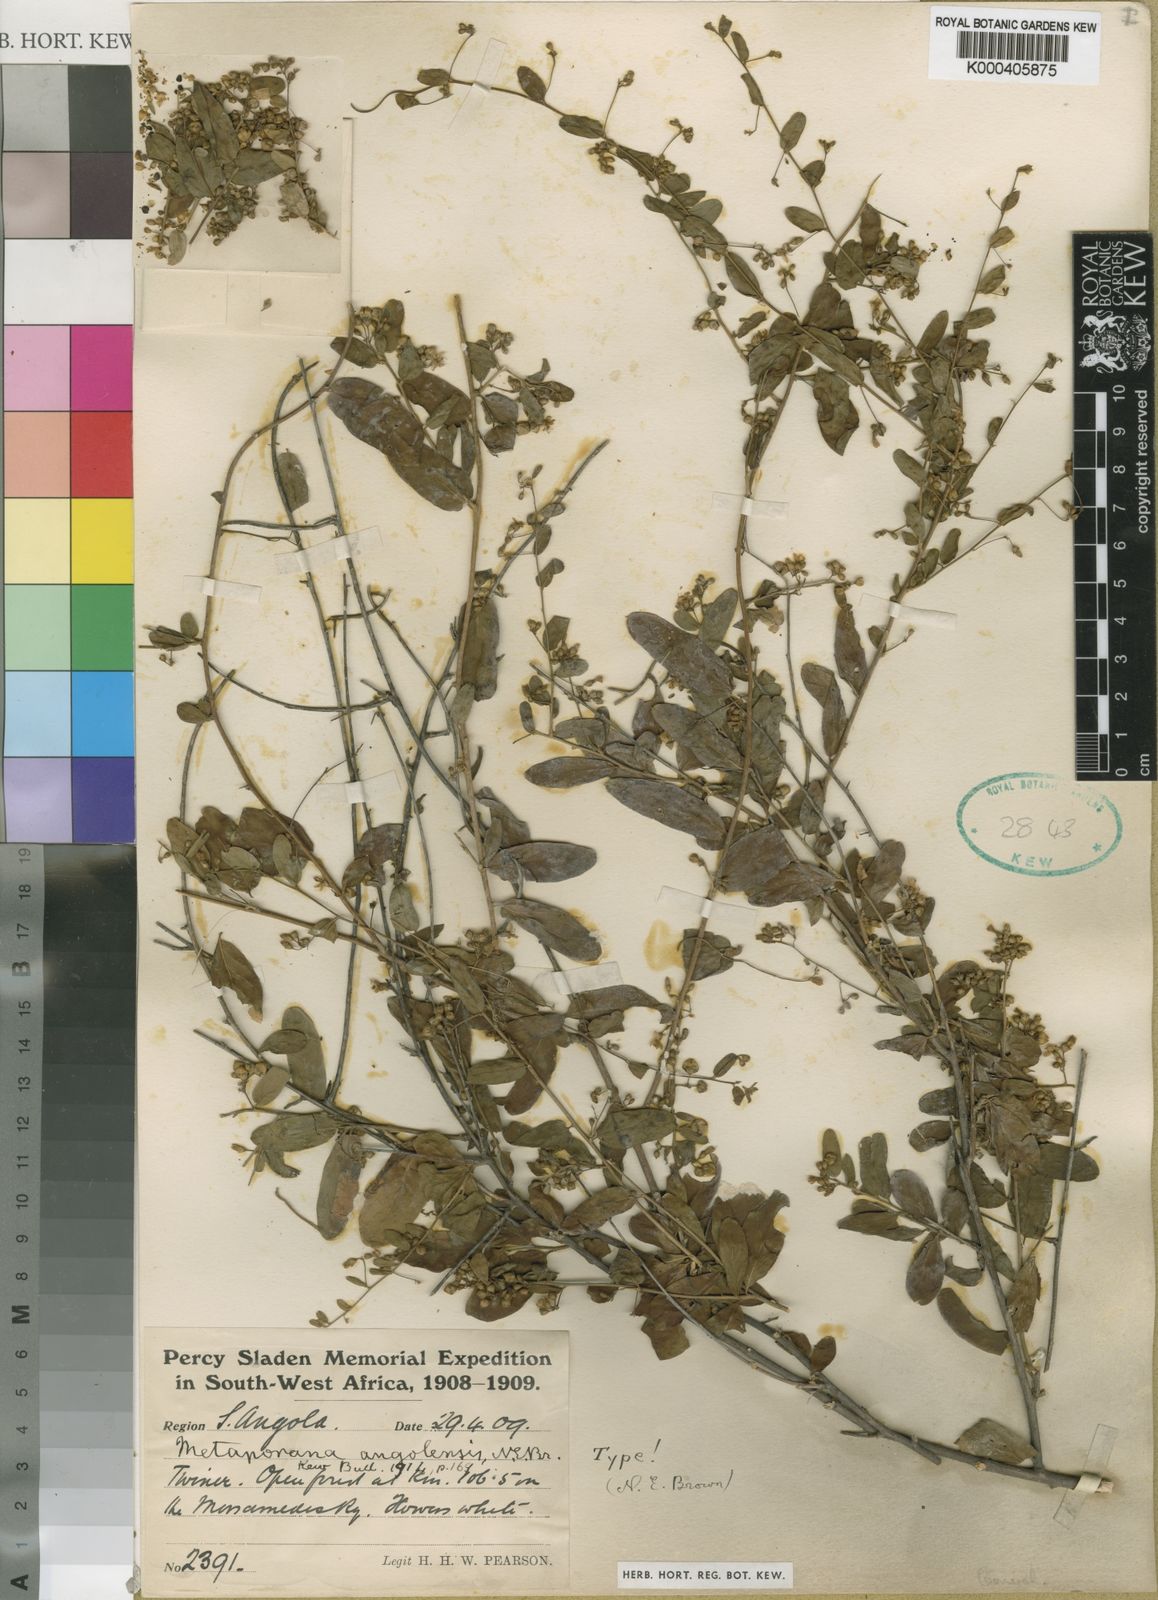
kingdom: Plantae
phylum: Tracheophyta
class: Magnoliopsida
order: Solanales
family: Convolvulaceae
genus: Seddera
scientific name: Seddera schizantha
